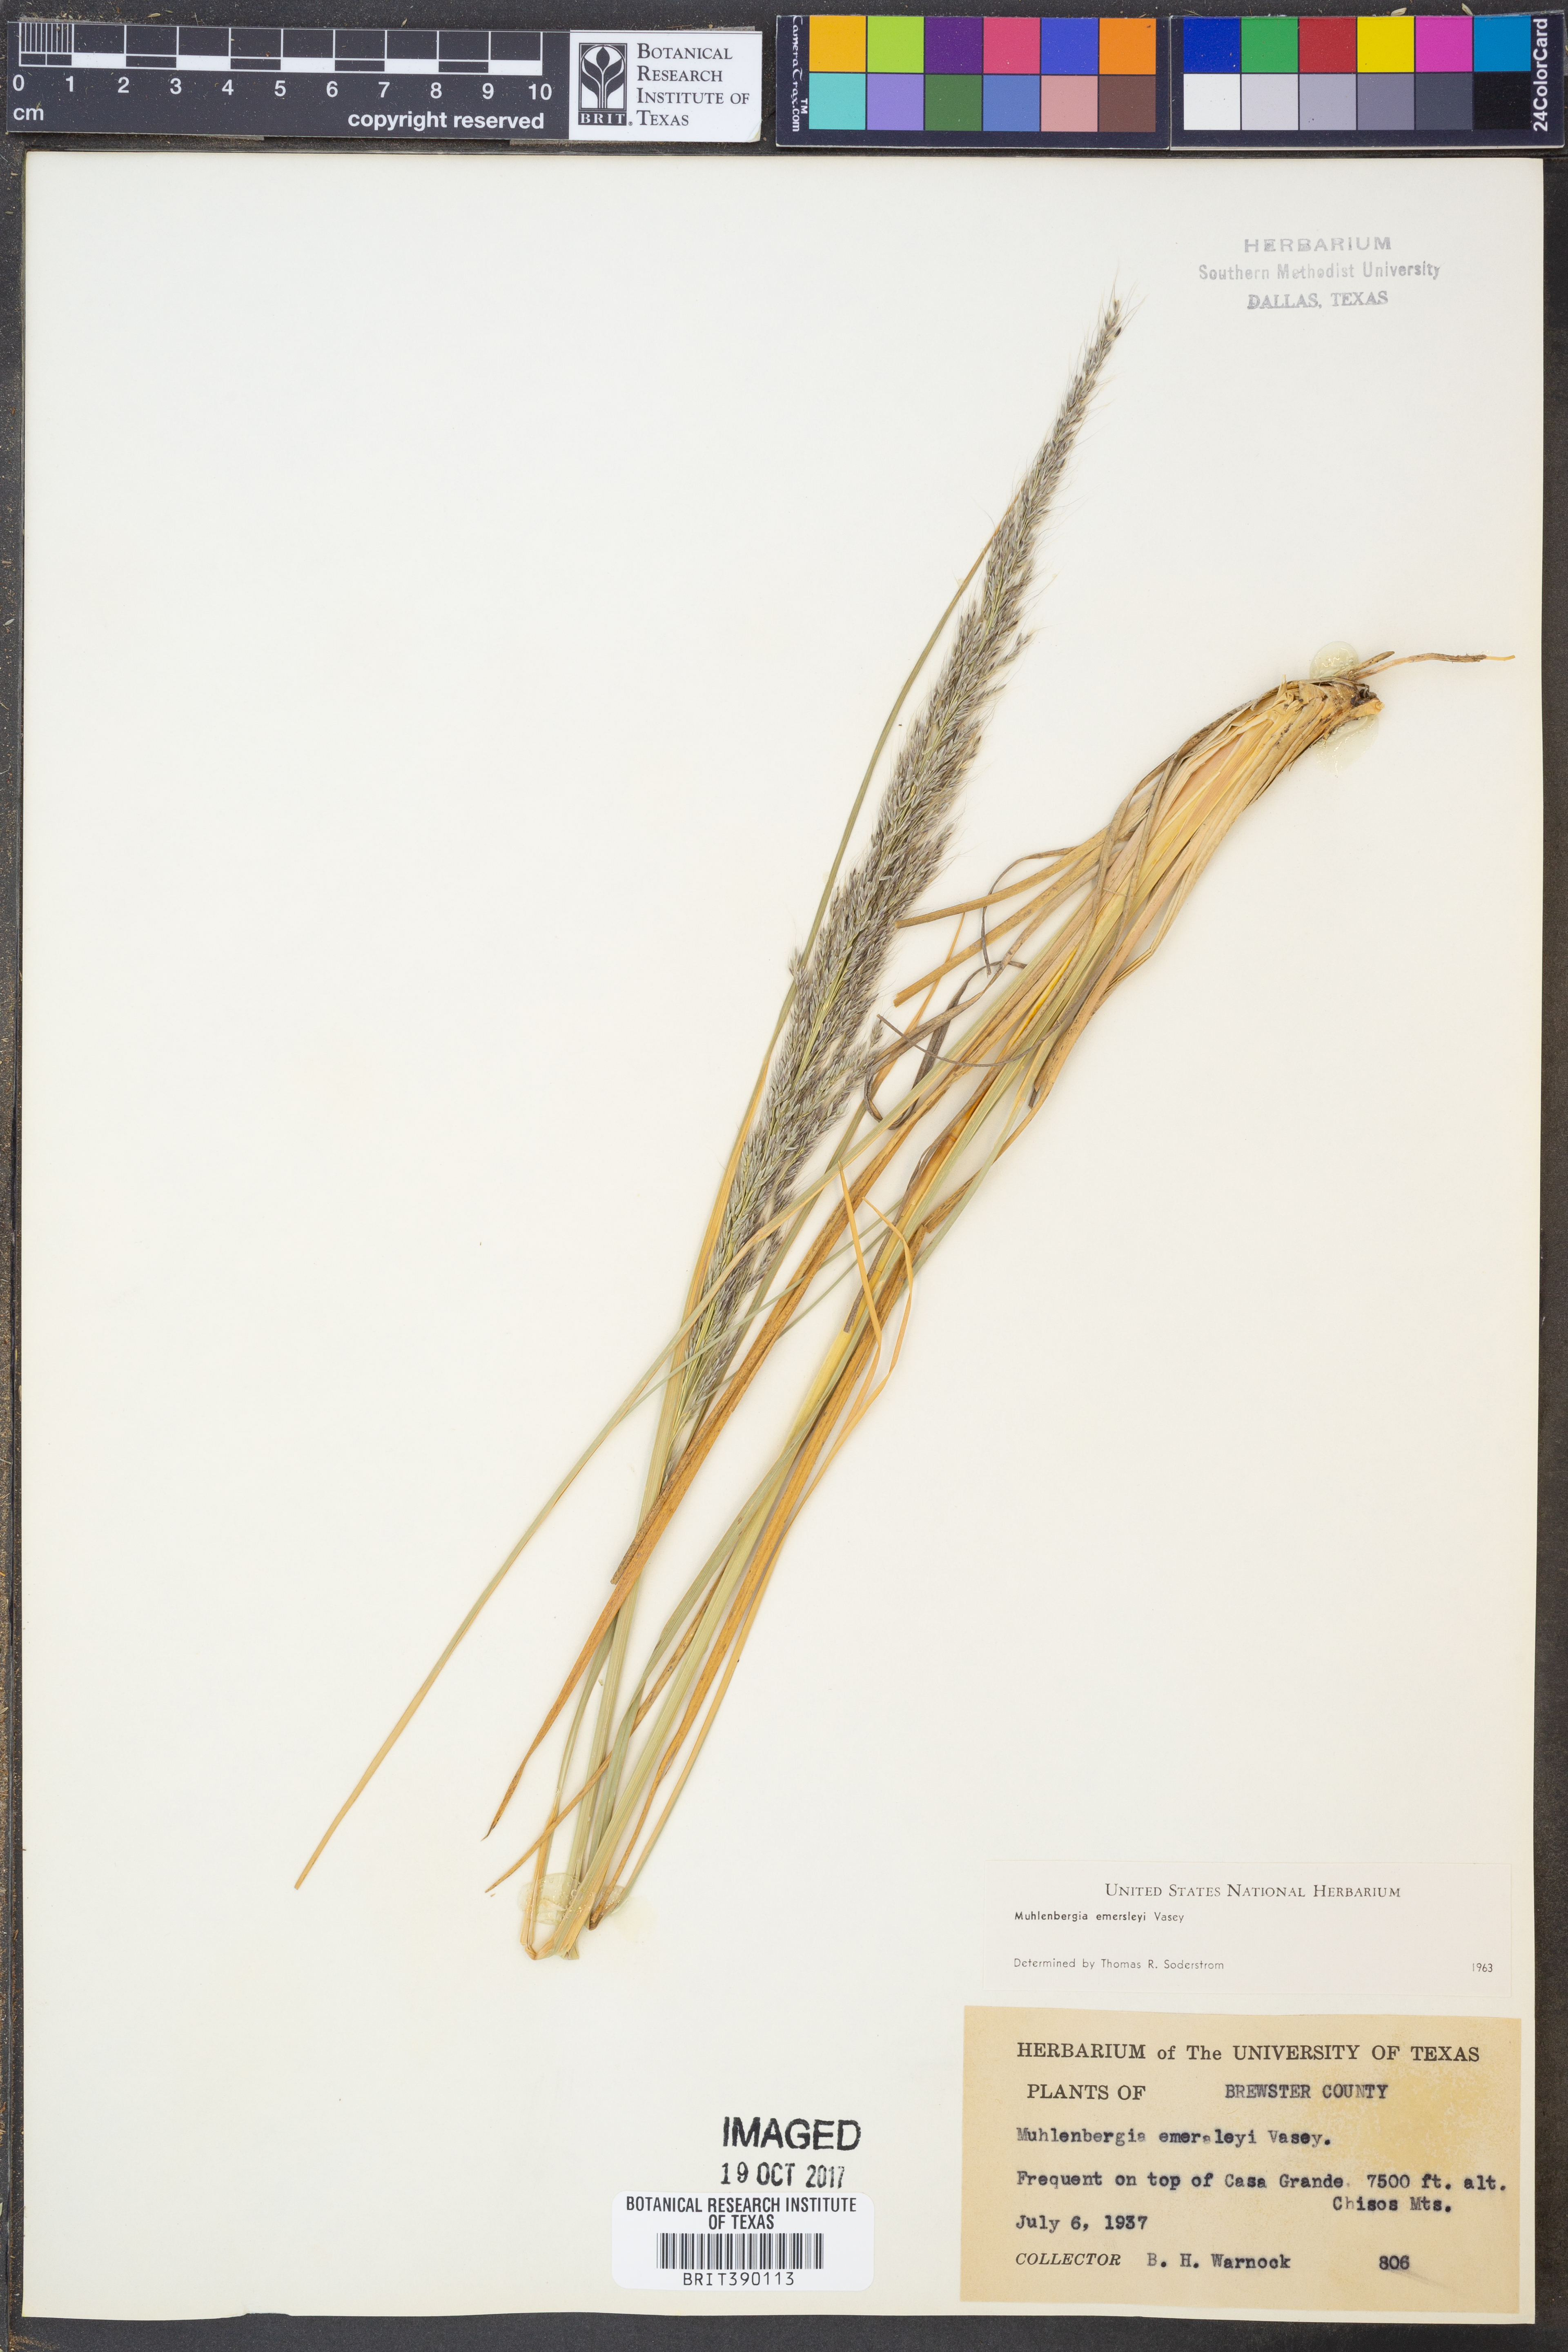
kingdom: Plantae
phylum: Tracheophyta
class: Liliopsida
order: Poales
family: Poaceae
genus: Muhlenbergia
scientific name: Muhlenbergia emersleyi
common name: Bull grass
